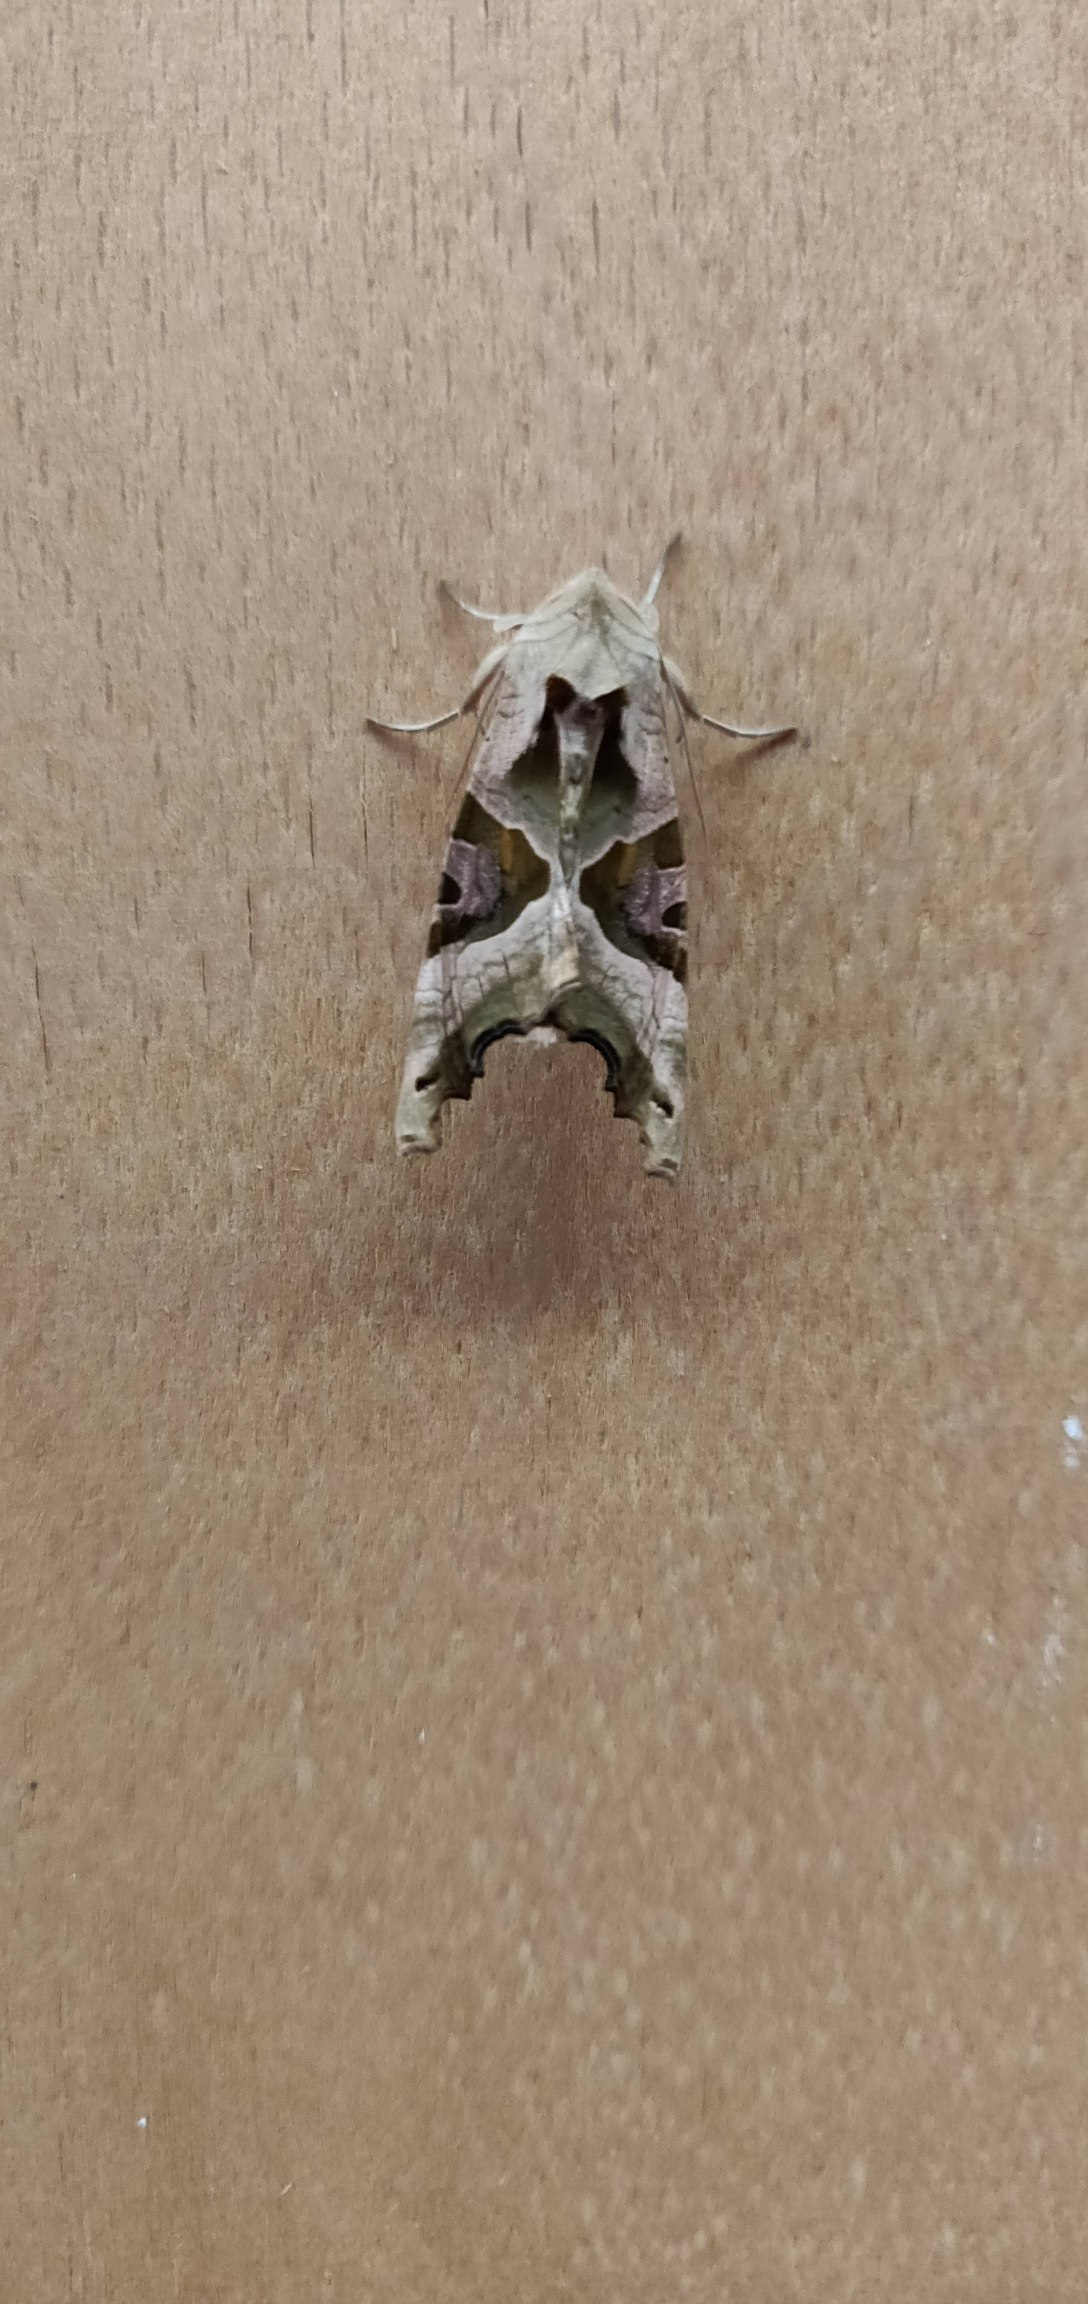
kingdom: Animalia
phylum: Arthropoda
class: Insecta
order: Lepidoptera
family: Noctuidae
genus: Phlogophora
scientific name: Phlogophora meticulosa
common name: Agatugle
